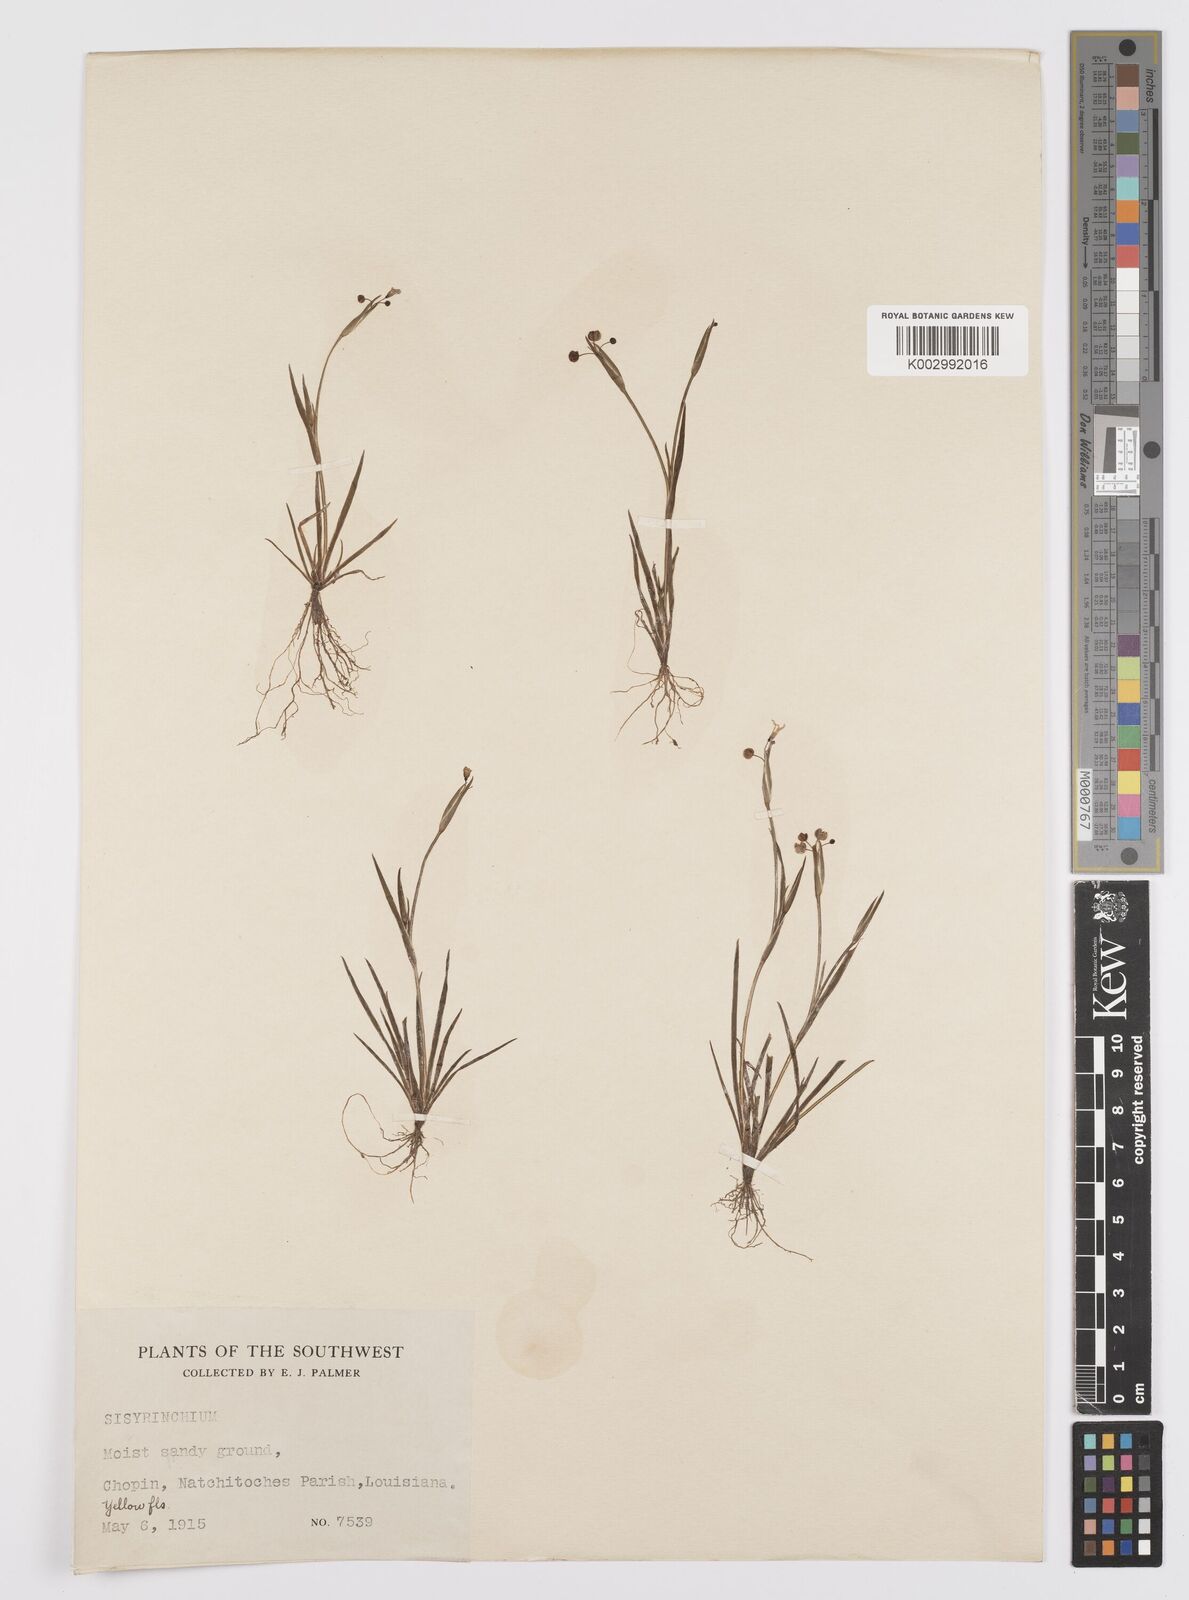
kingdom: Plantae
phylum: Tracheophyta
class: Liliopsida
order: Asparagales
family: Iridaceae
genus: Sisyrinchium
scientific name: Sisyrinchium
